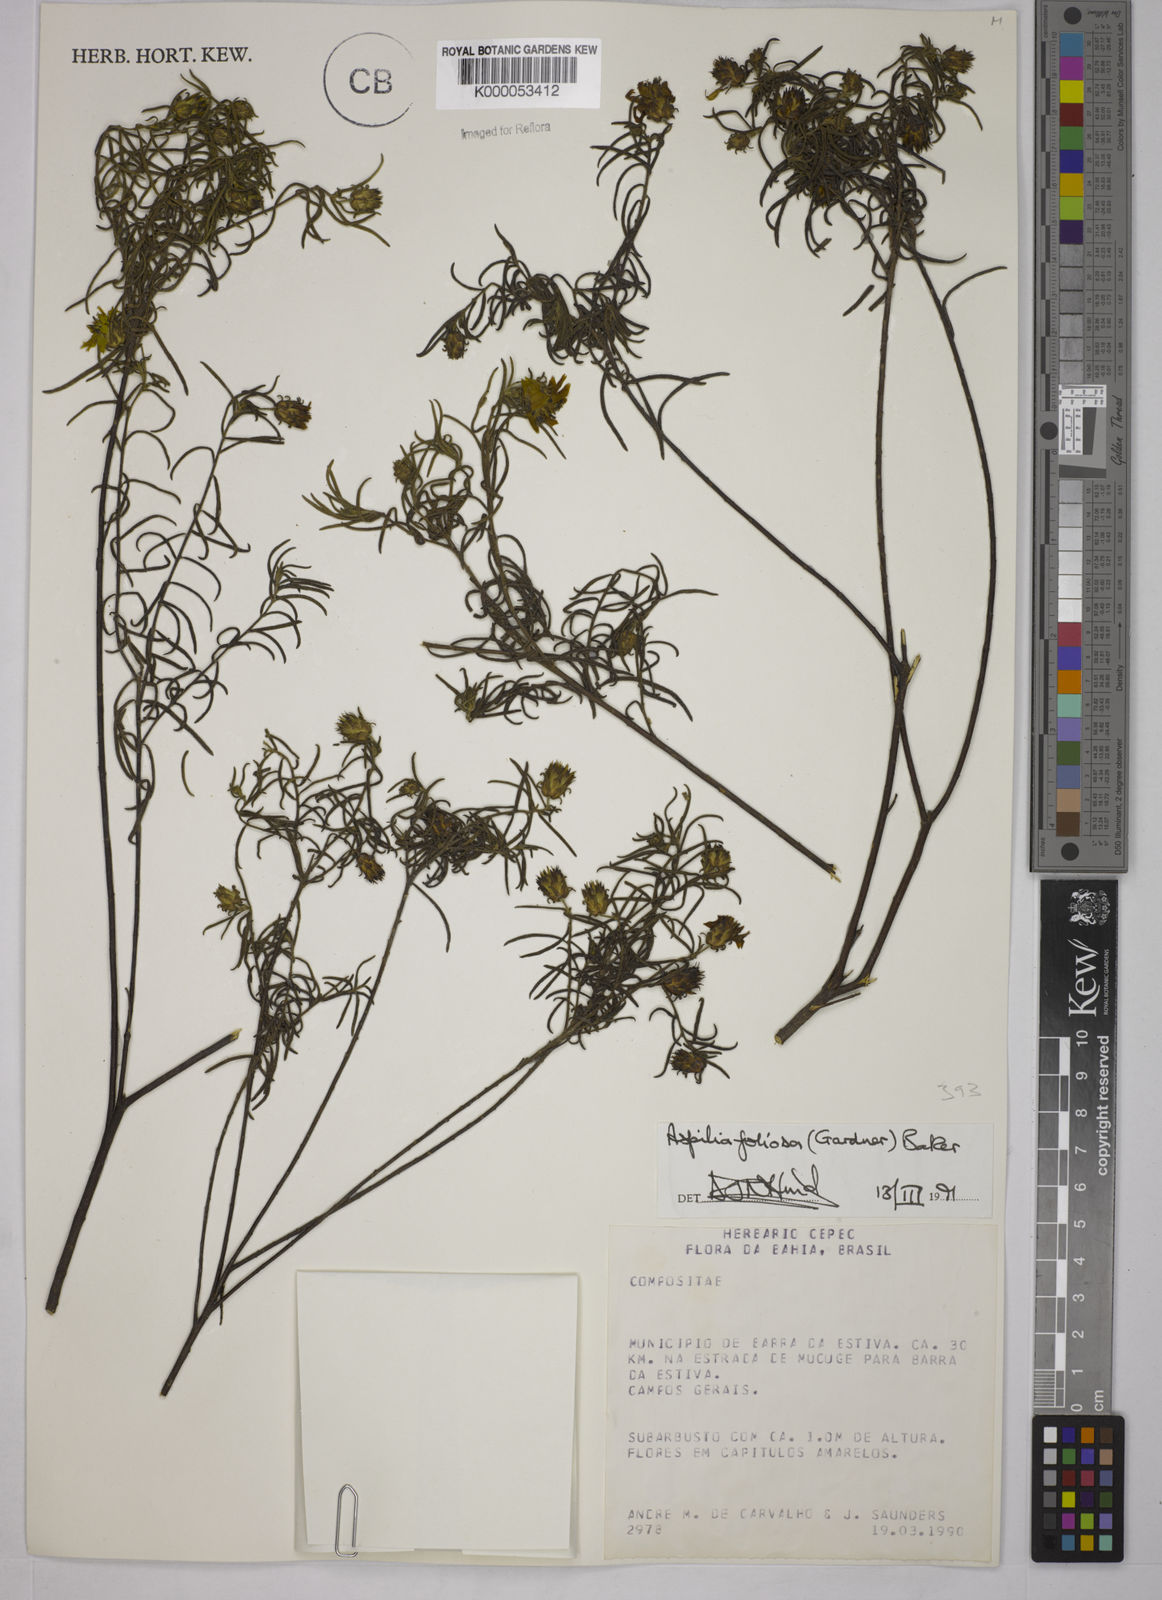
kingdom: Plantae
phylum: Tracheophyta
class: Magnoliopsida
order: Asterales
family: Asteraceae
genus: Aspilia
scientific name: Aspilia
